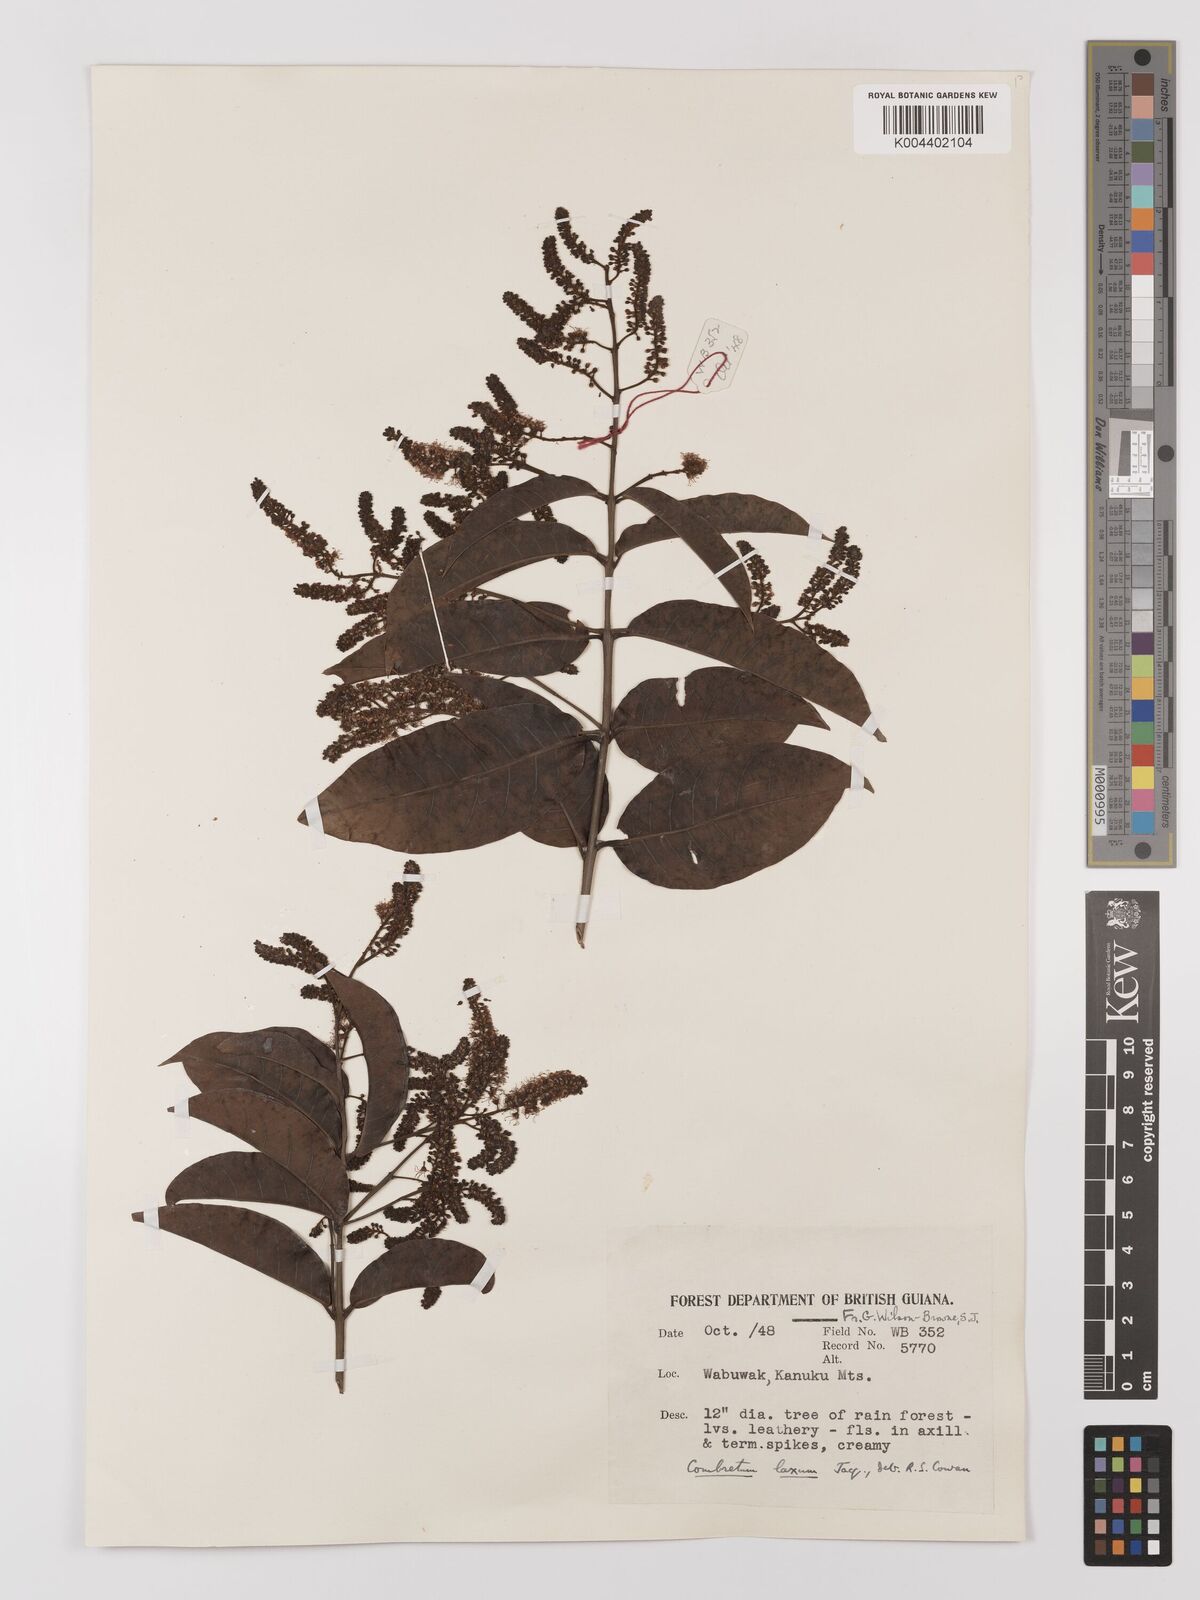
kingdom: Plantae
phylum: Tracheophyta
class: Magnoliopsida
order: Myrtales
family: Combretaceae
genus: Combretum
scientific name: Combretum
